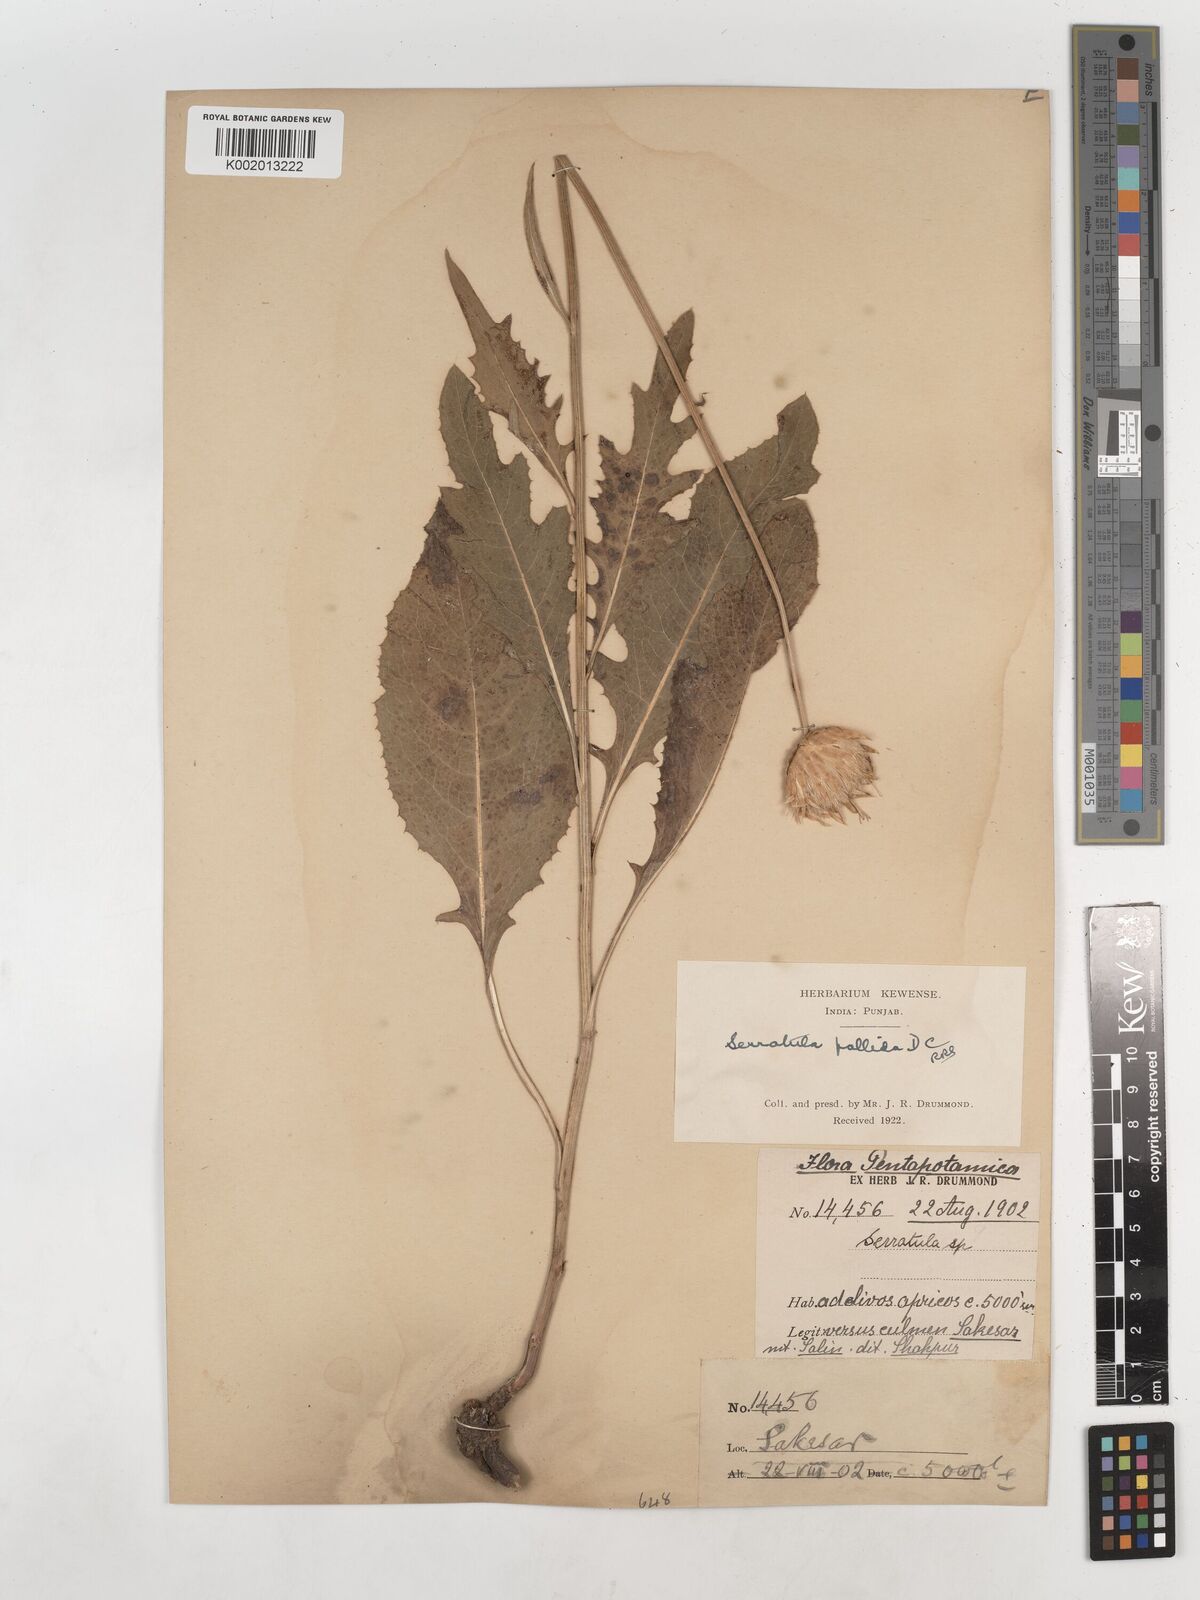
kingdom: Plantae
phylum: Tracheophyta
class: Magnoliopsida
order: Asterales
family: Asteraceae
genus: Klasea
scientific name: Klasea pallida
